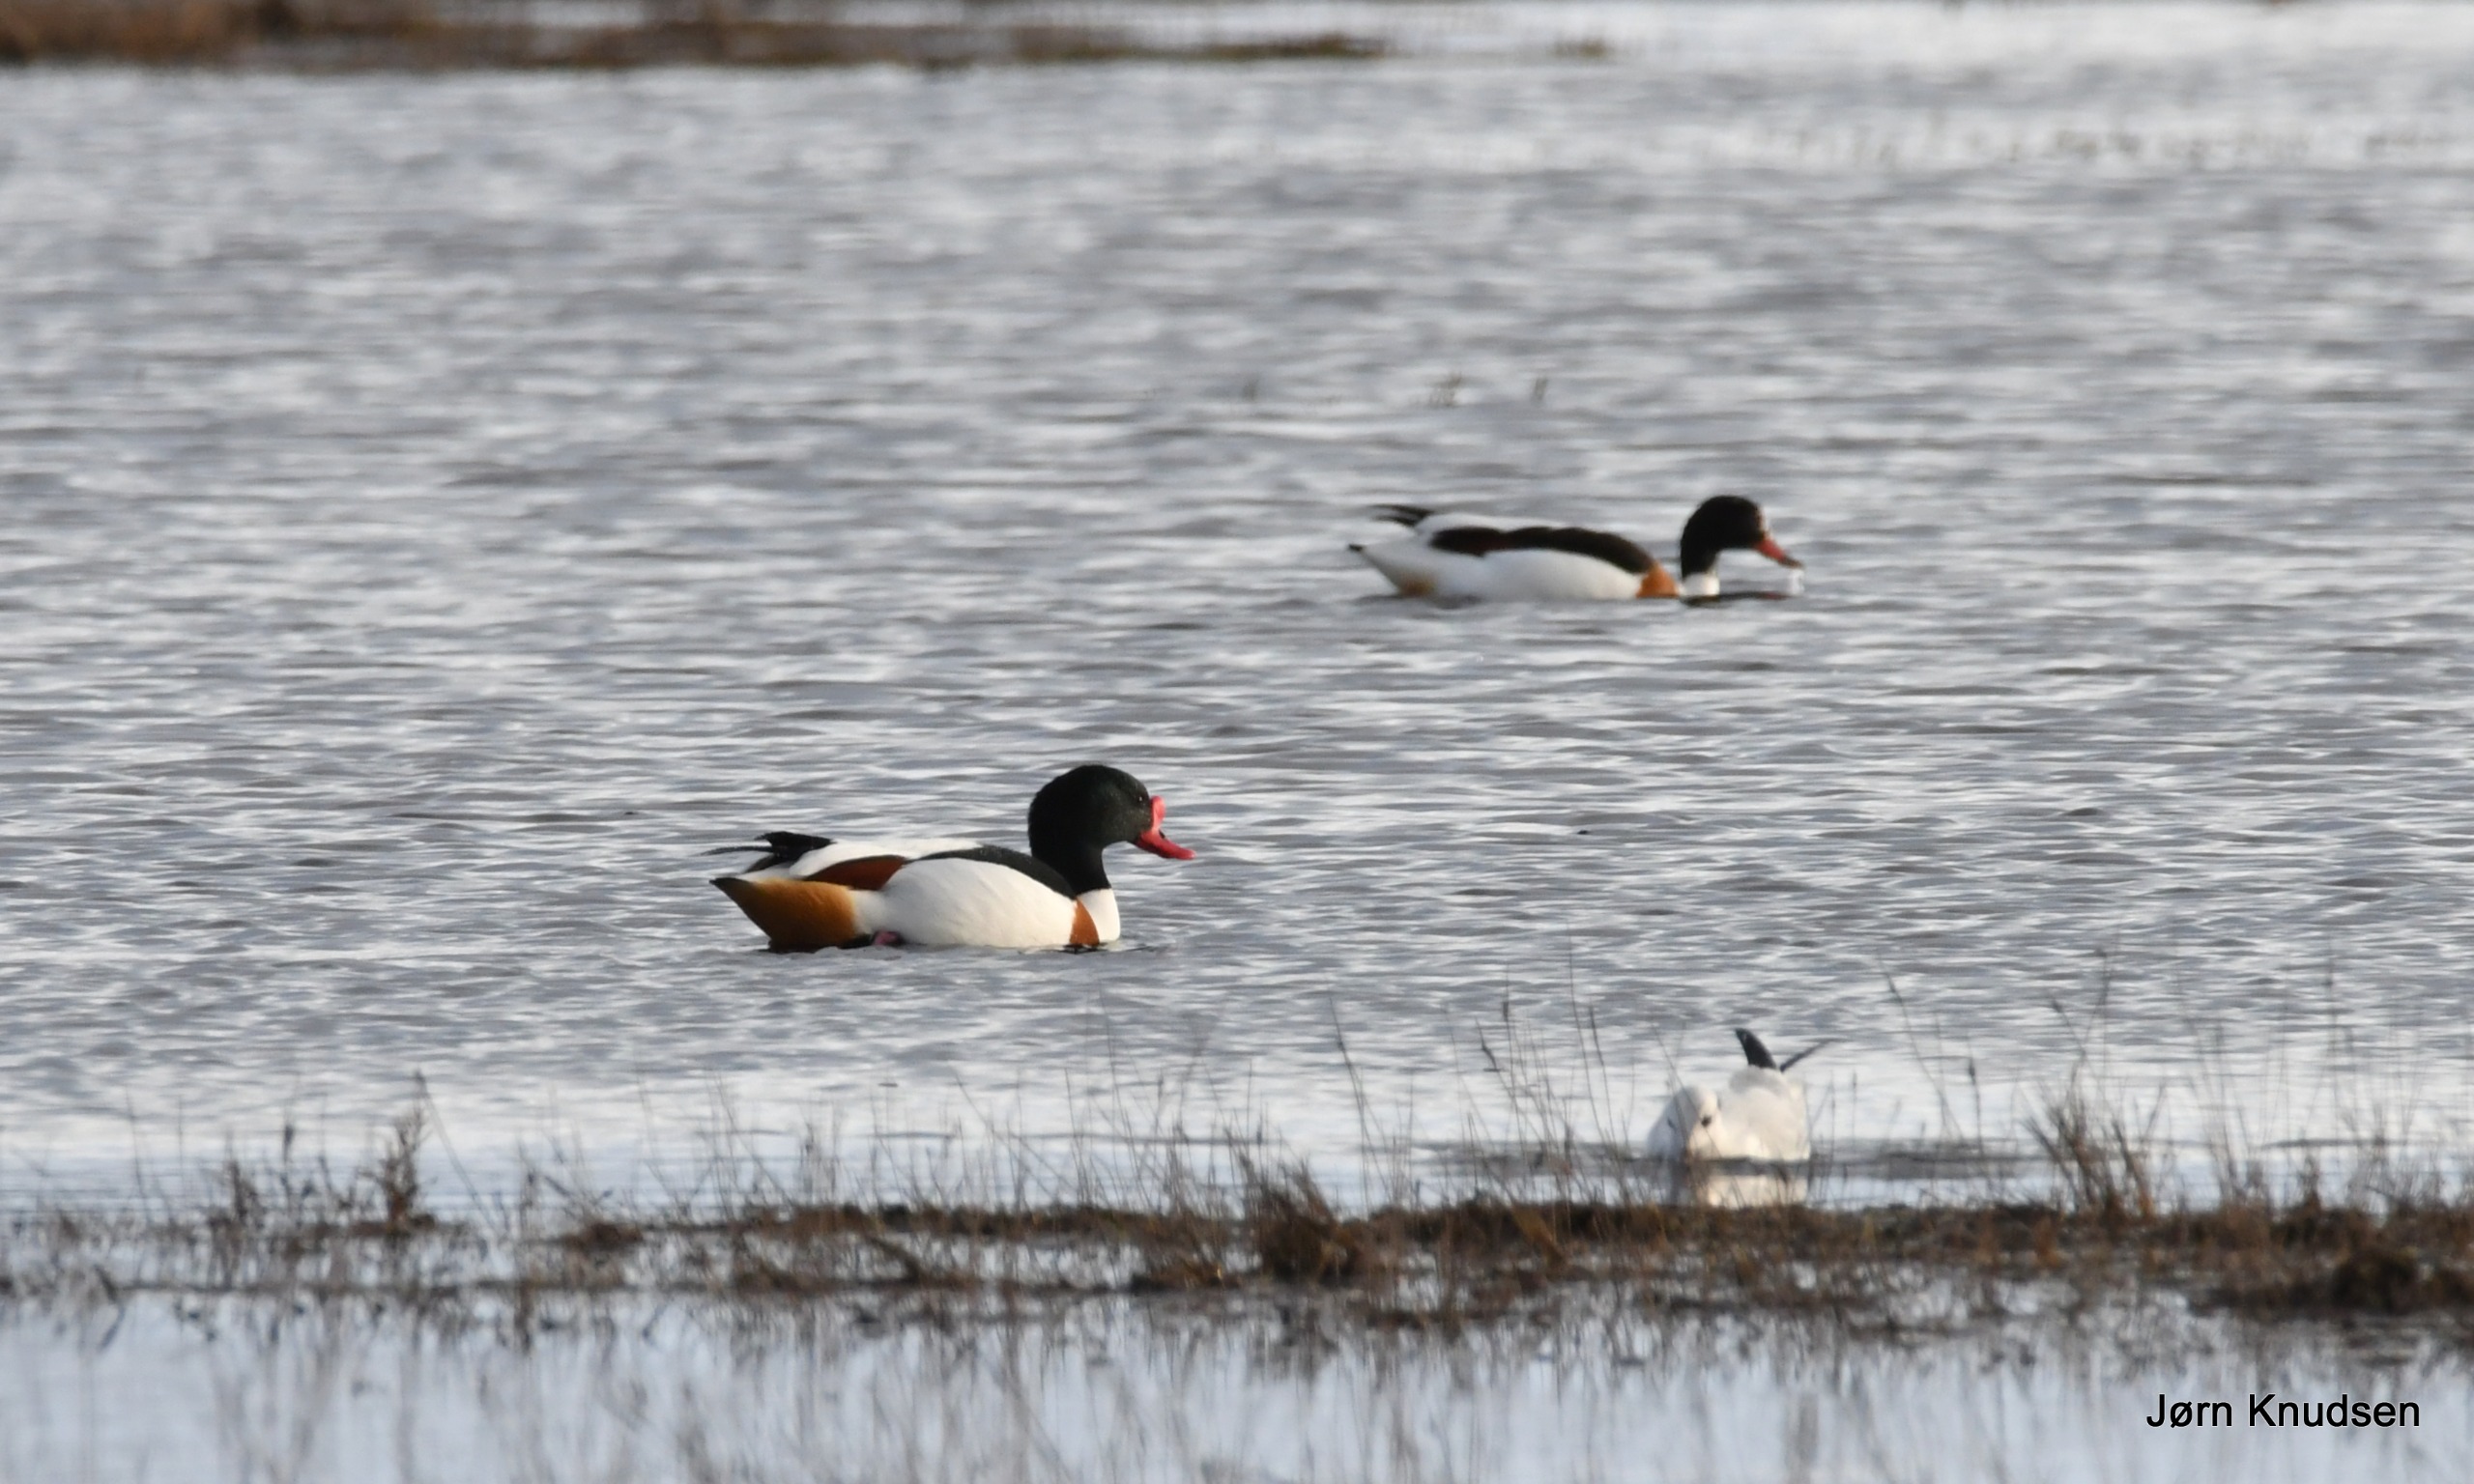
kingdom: Animalia
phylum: Chordata
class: Aves
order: Anseriformes
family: Anatidae
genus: Tadorna
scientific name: Tadorna tadorna
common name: Gravand
